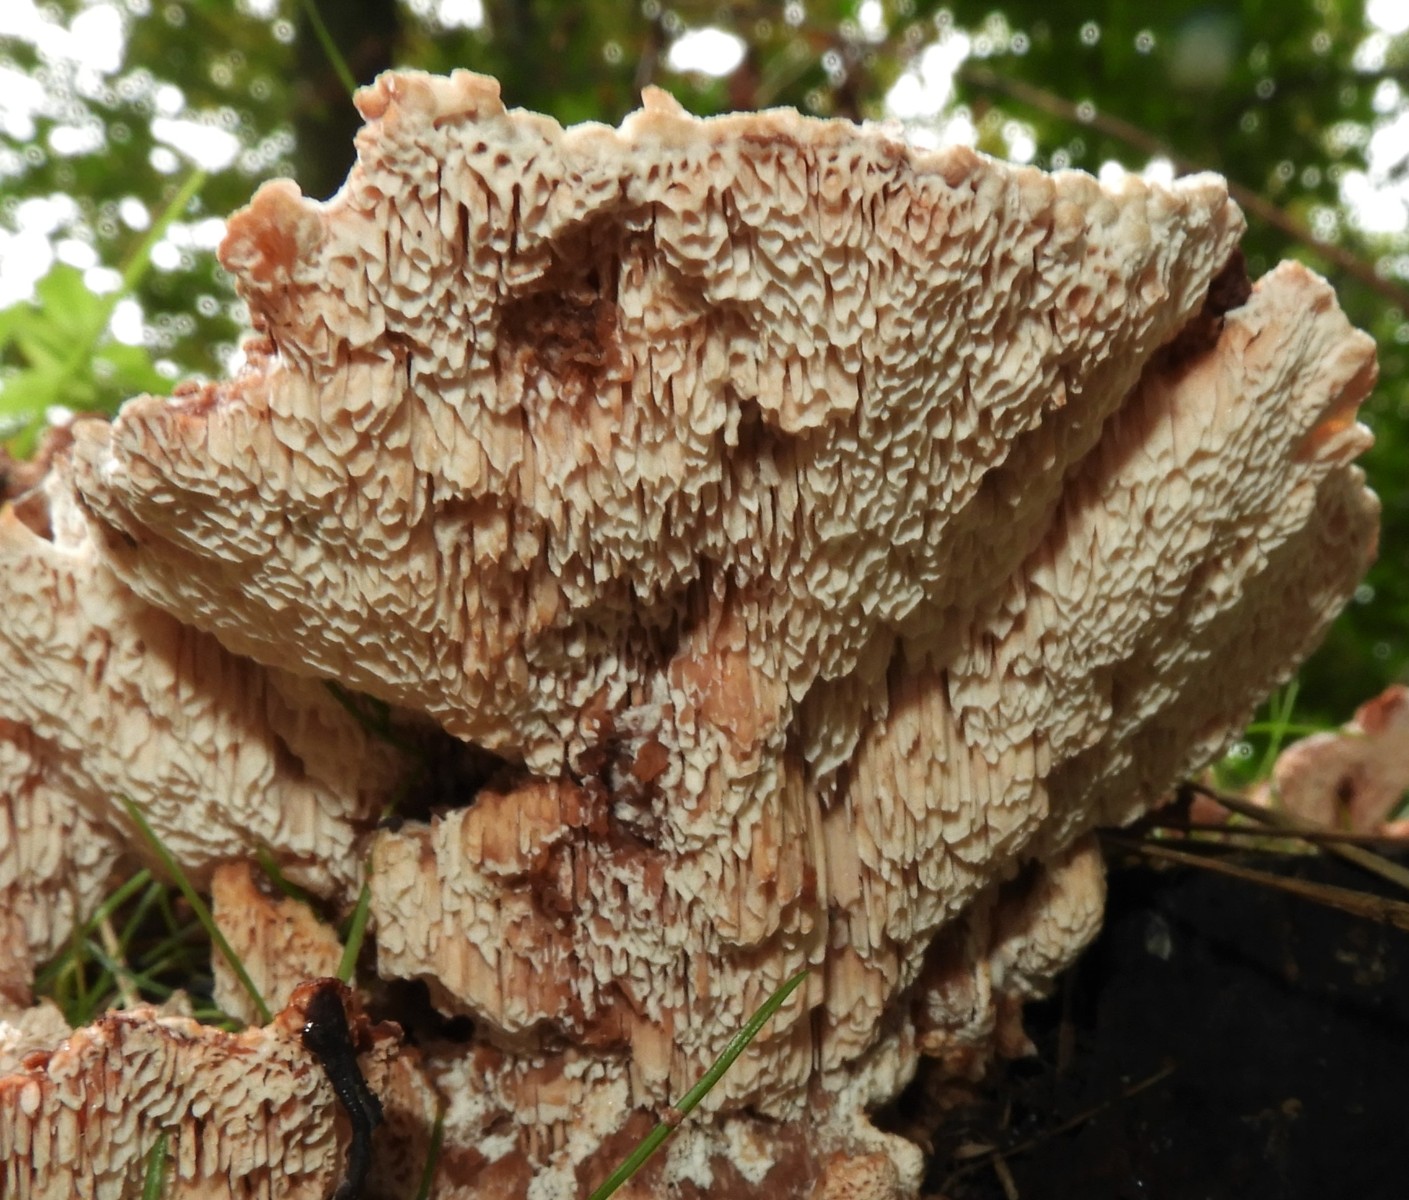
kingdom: Fungi
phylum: Basidiomycota
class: Agaricomycetes
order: Polyporales
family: Podoscyphaceae
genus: Abortiporus
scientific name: Abortiporus biennis
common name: rødmende pjalteporesvamp
